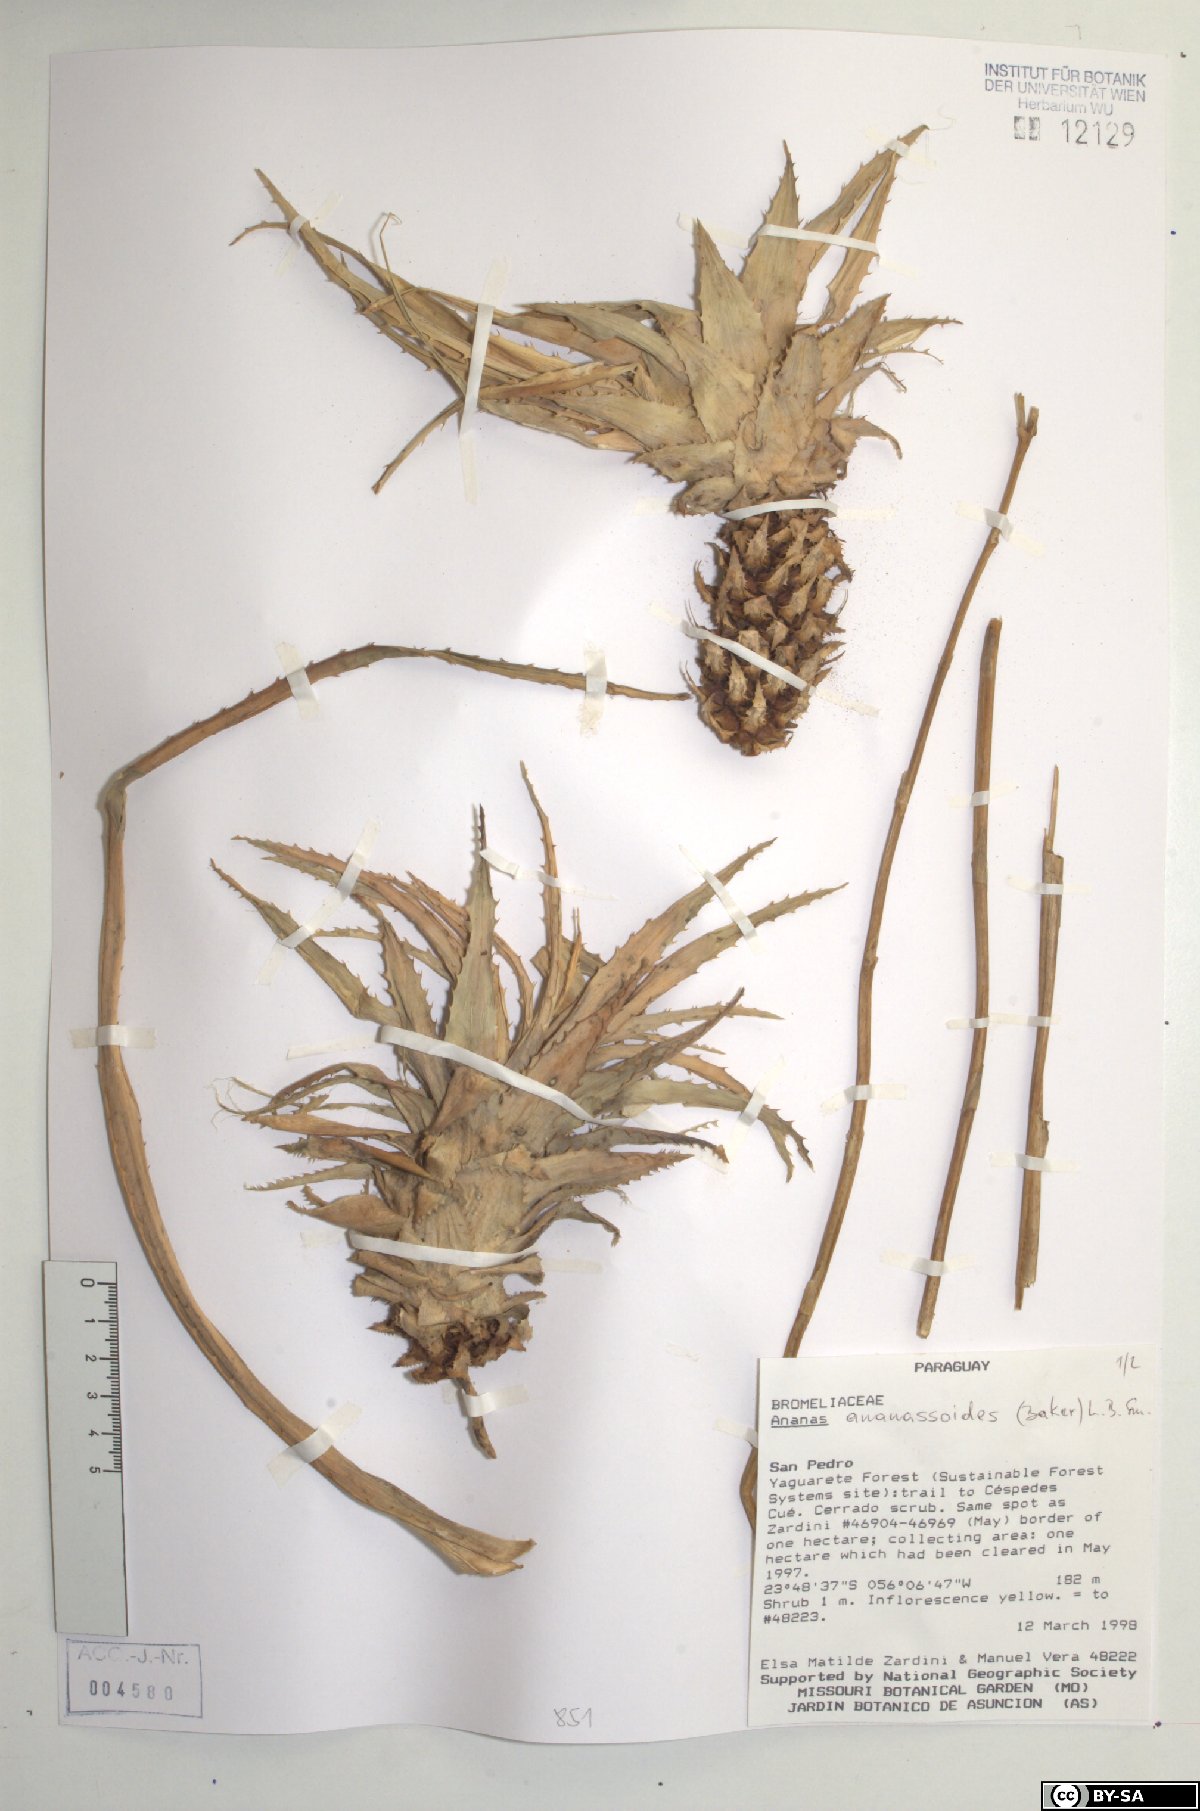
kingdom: Plantae
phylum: Tracheophyta
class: Liliopsida
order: Poales
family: Bromeliaceae
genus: Ananas
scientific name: Ananas comosus
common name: Pineapple
